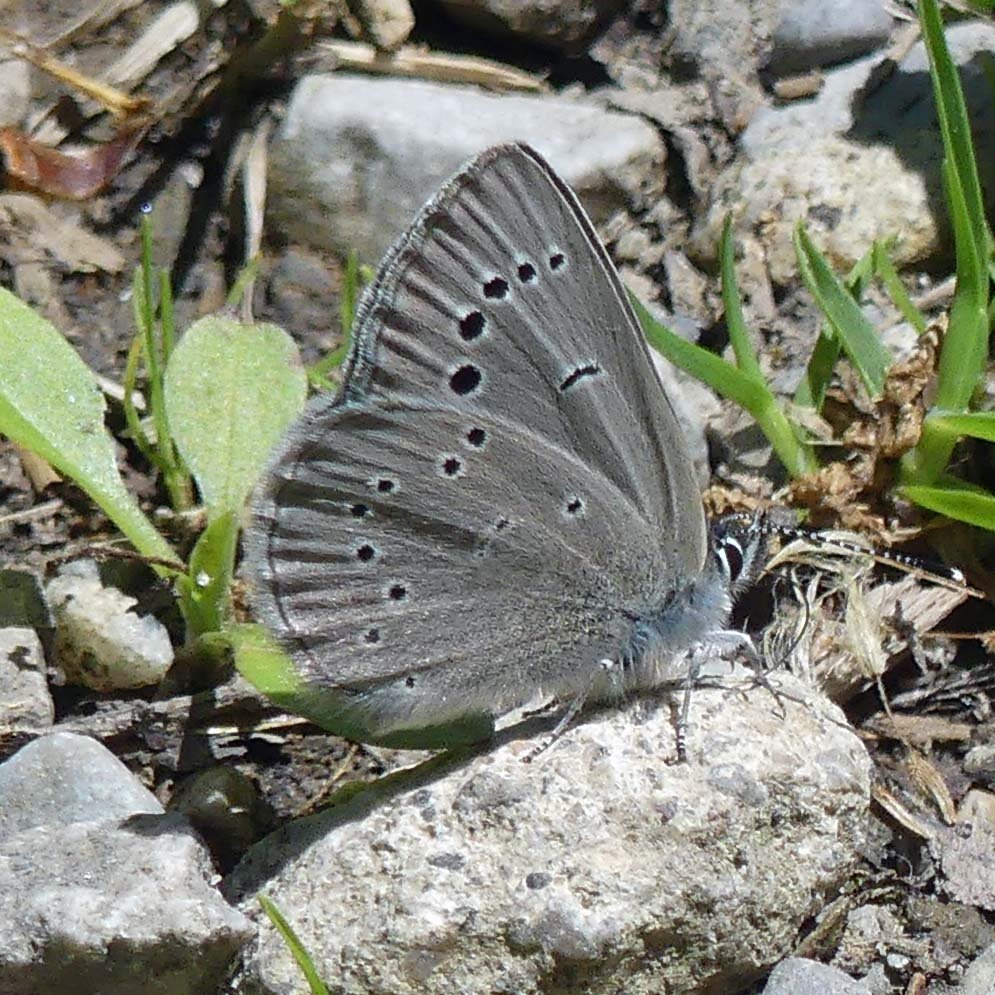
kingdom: Animalia
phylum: Arthropoda
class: Insecta
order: Lepidoptera
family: Lycaenidae
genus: Glaucopsyche
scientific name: Glaucopsyche lygdamus
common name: Silvery Blue
